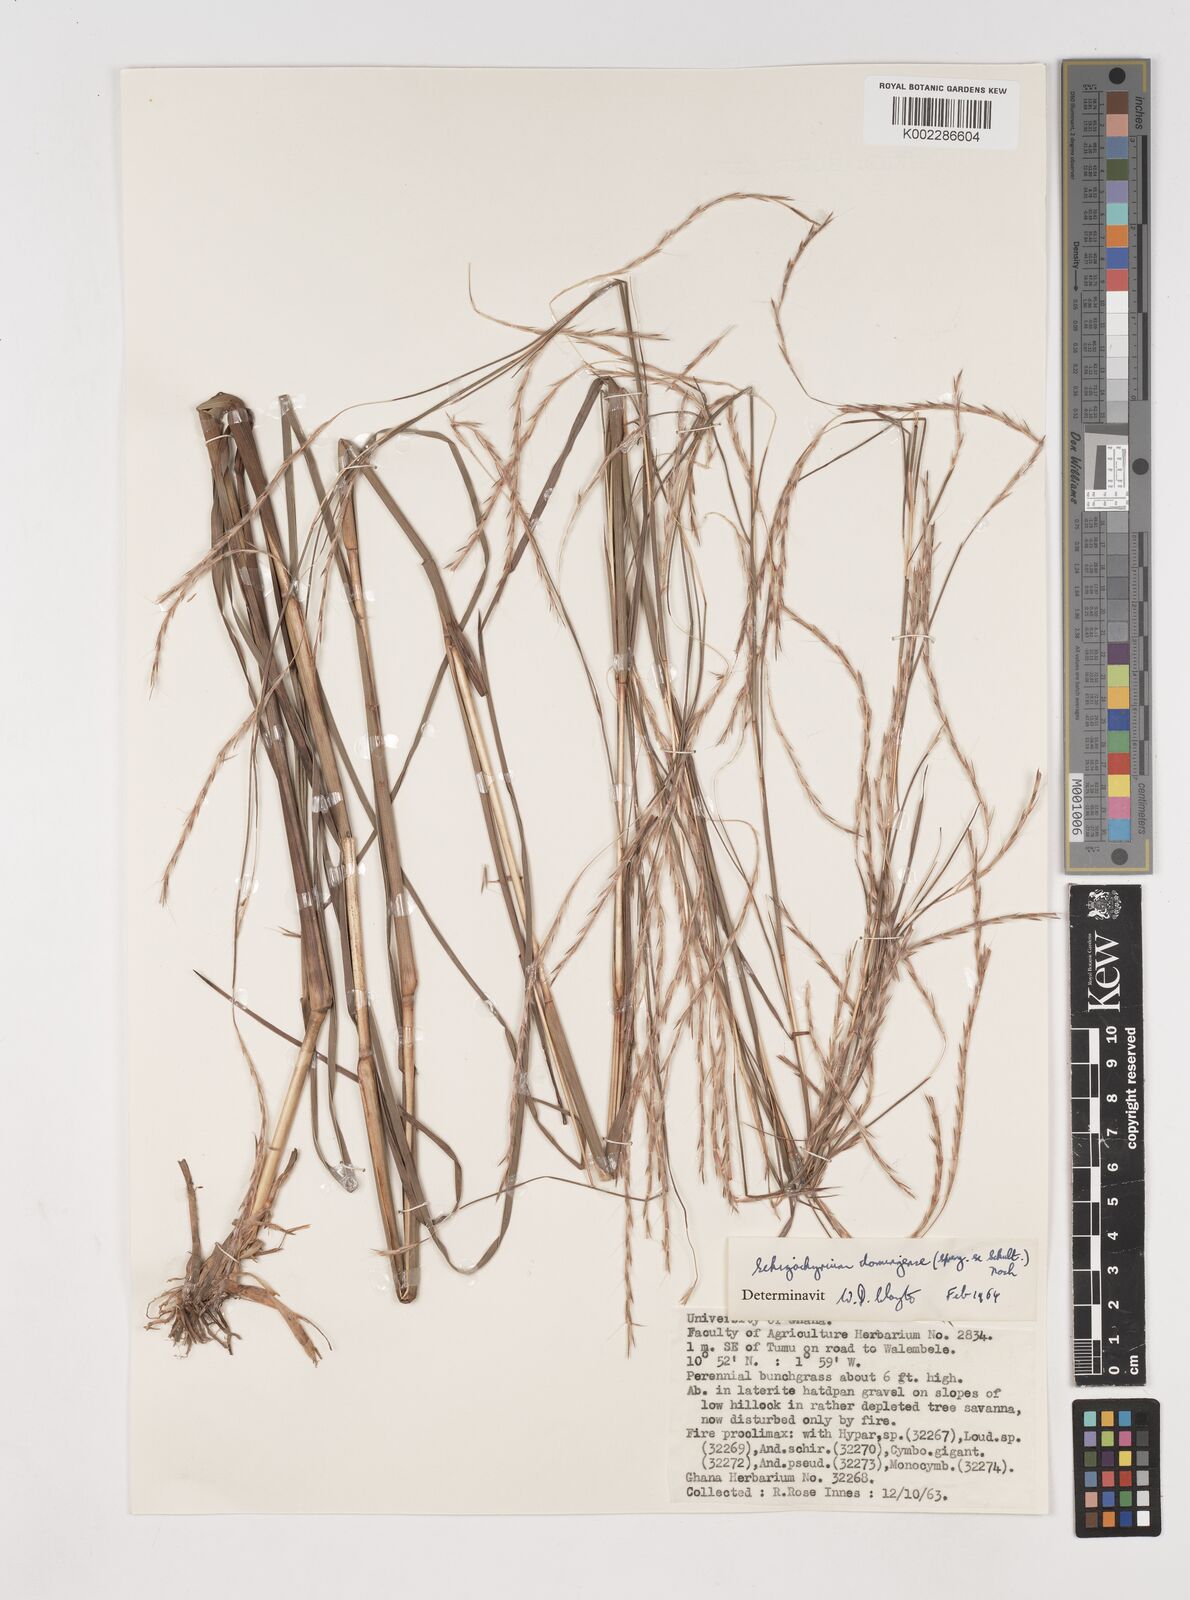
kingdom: Plantae
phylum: Tracheophyta
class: Liliopsida
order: Poales
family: Poaceae
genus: Schizachyrium
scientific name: Schizachyrium sanguineum
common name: Crimson bluestem
